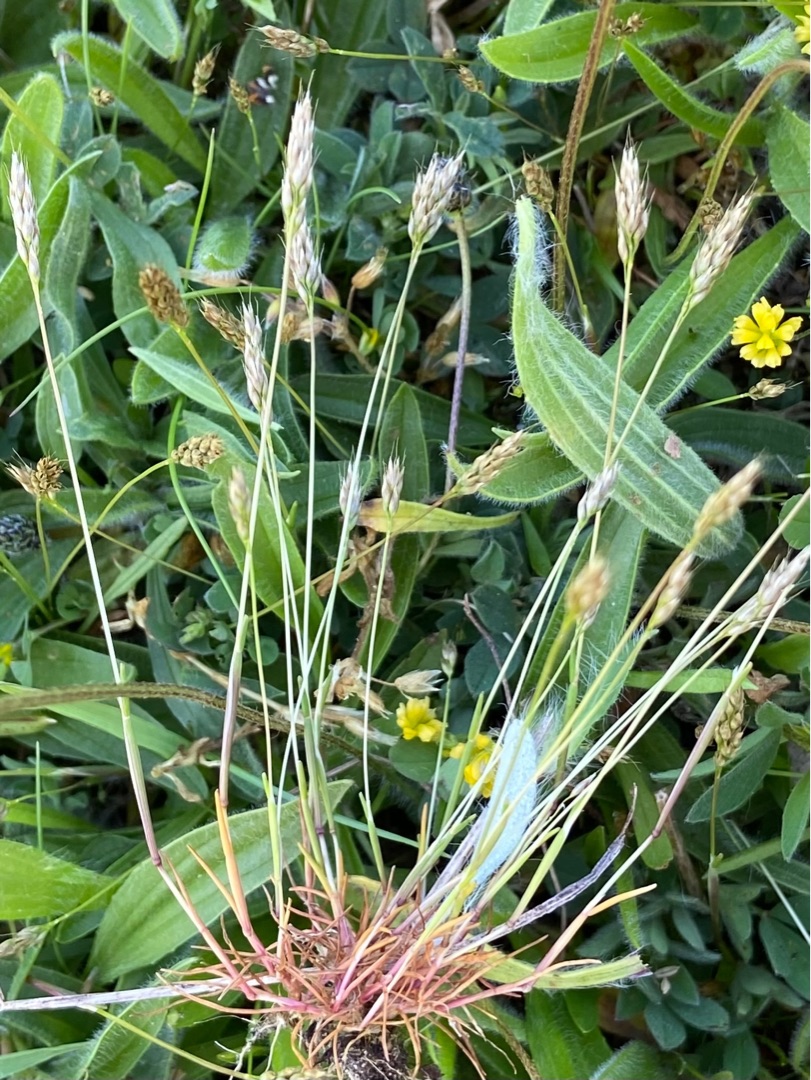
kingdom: Plantae
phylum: Tracheophyta
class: Liliopsida
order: Poales
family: Poaceae
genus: Aira
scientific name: Aira praecox
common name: Tidlig dværgbunke
